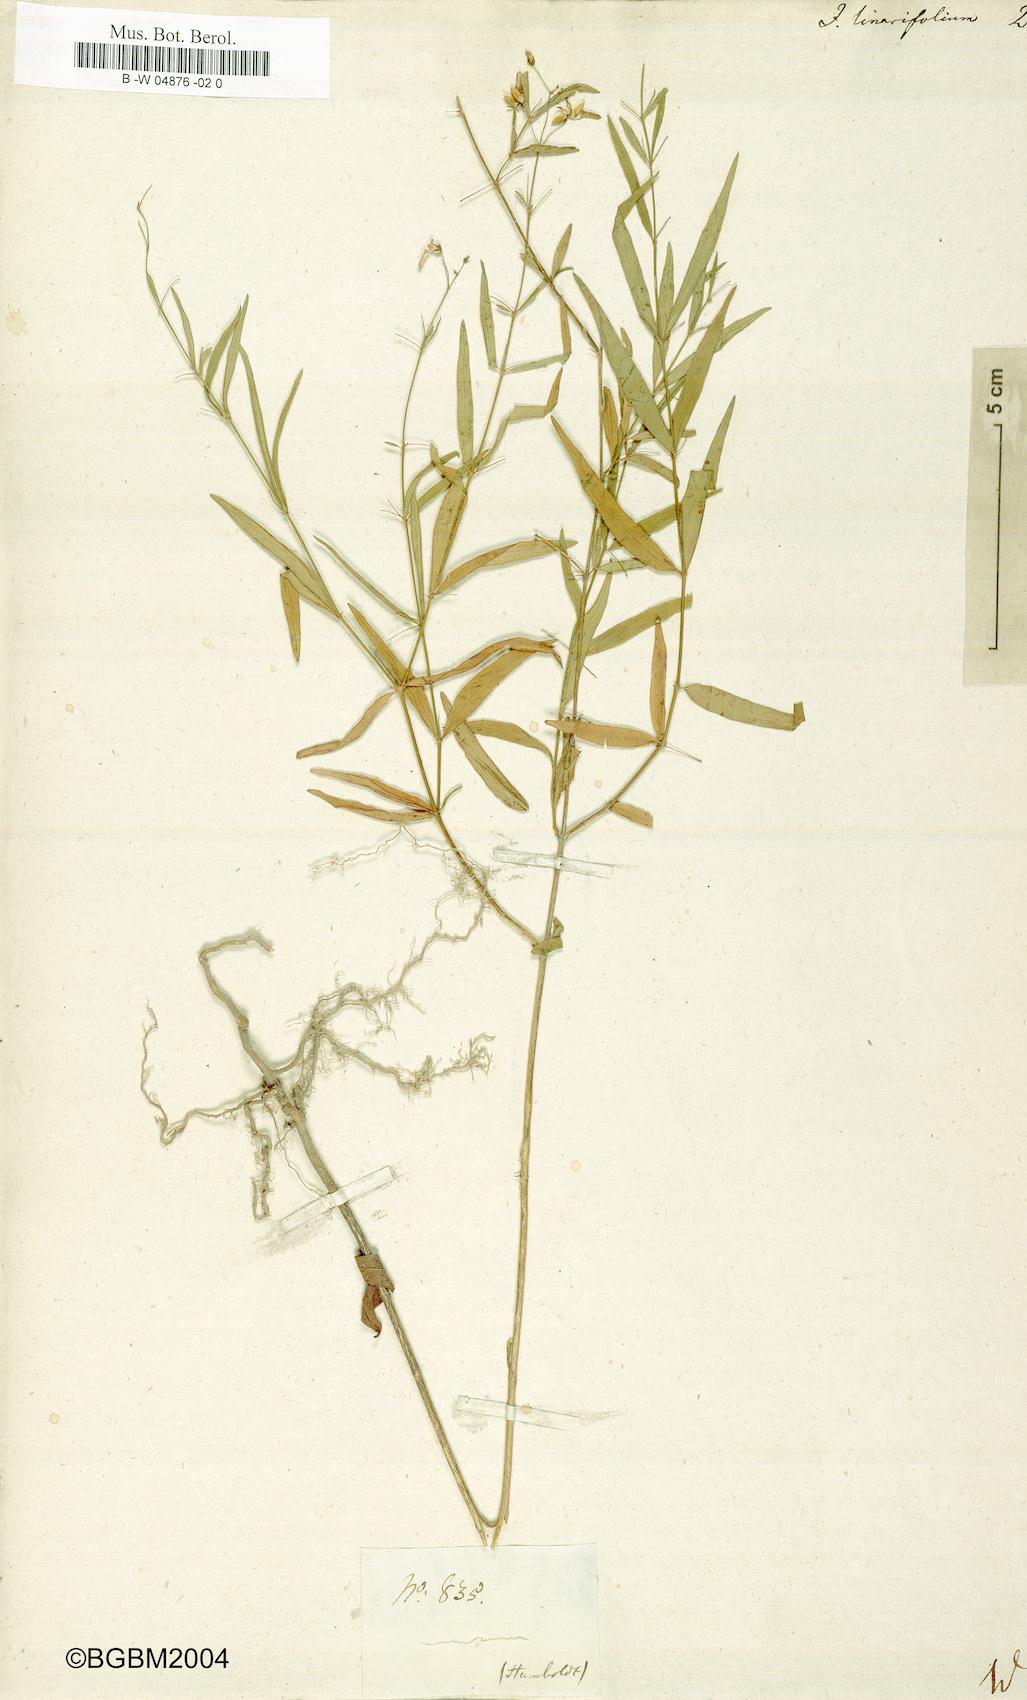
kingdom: Plantae
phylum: Tracheophyta
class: Magnoliopsida
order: Malpighiales
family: Violaceae
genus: Pombalia
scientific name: Pombalia linearifolia
